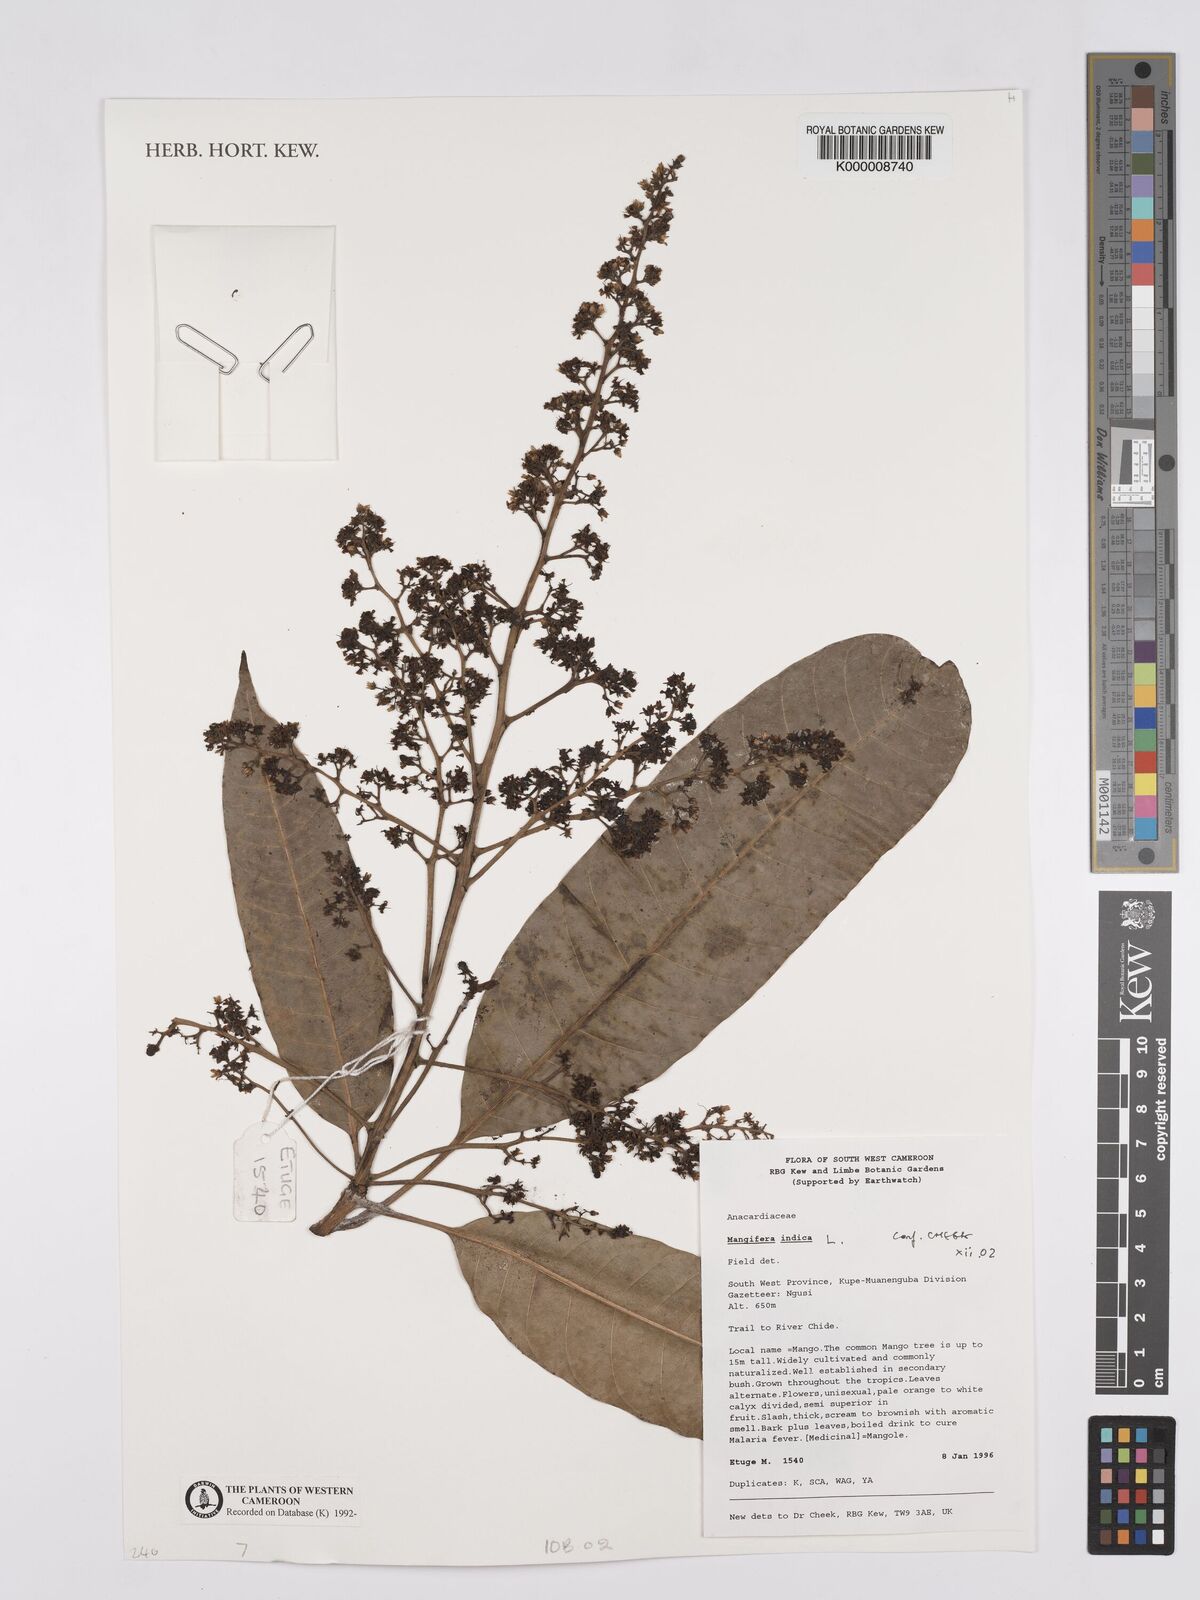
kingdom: Plantae
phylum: Tracheophyta
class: Magnoliopsida
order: Sapindales
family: Anacardiaceae
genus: Mangifera
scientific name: Mangifera indica
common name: Mango
